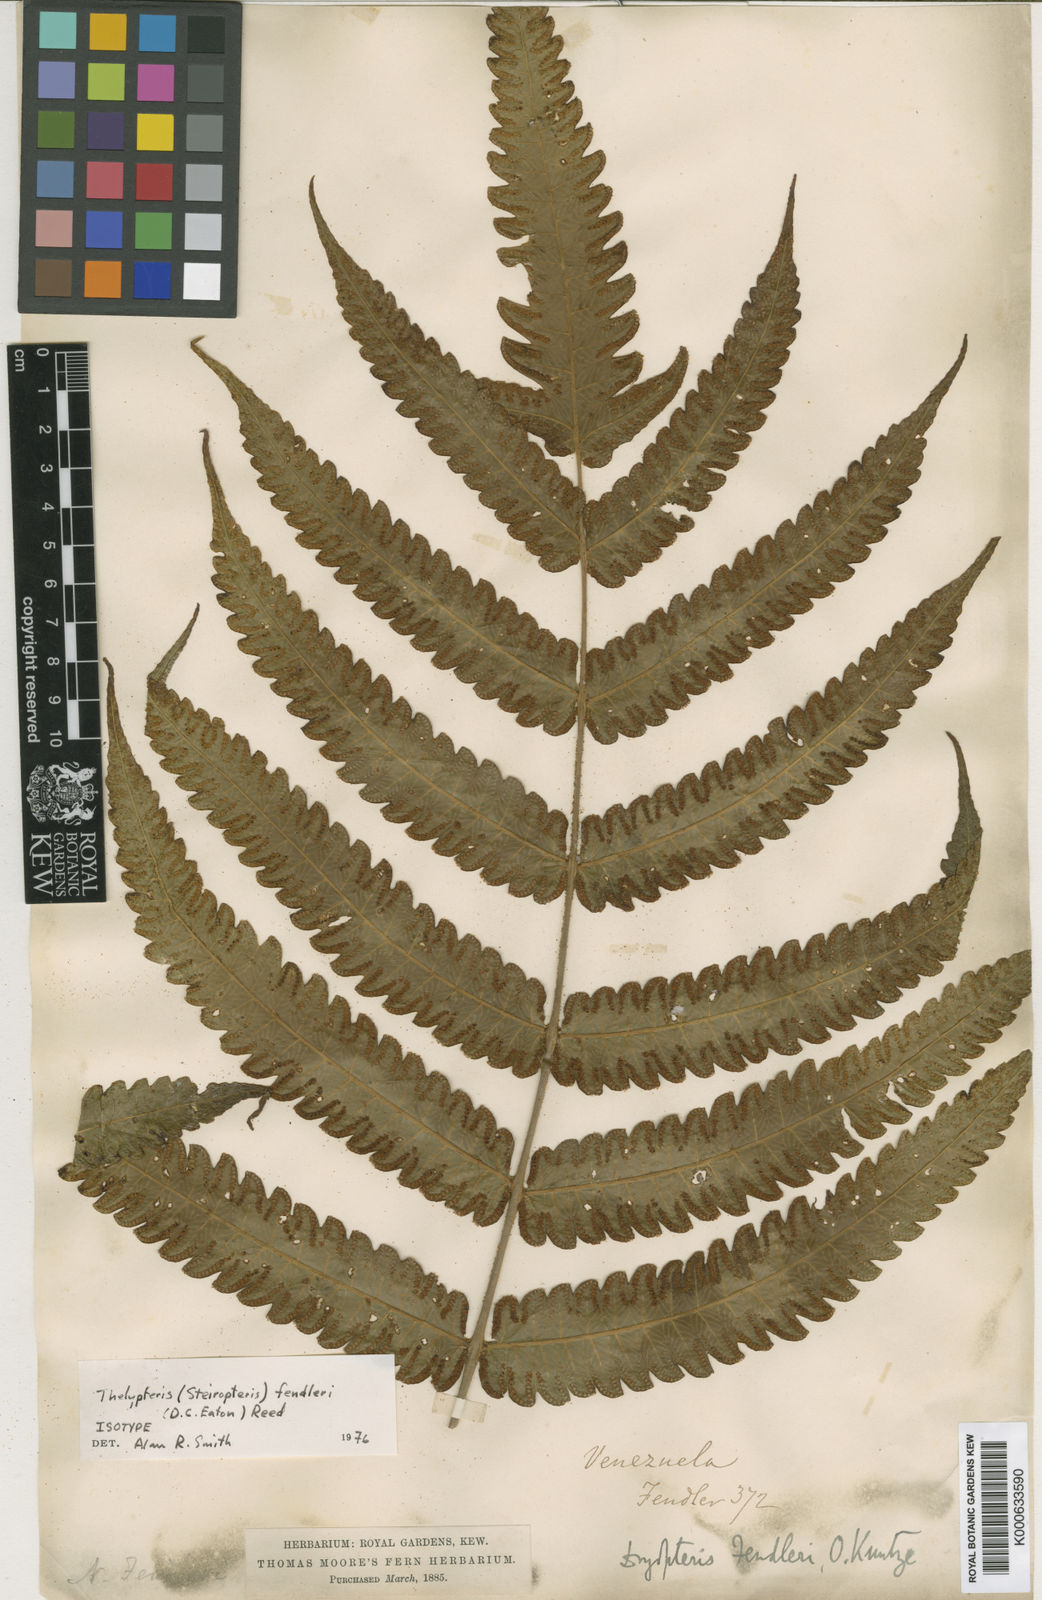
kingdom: Plantae
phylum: Tracheophyta
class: Polypodiopsida
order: Polypodiales
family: Thelypteridaceae
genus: Steiropteris
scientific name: Steiropteris fendleri
